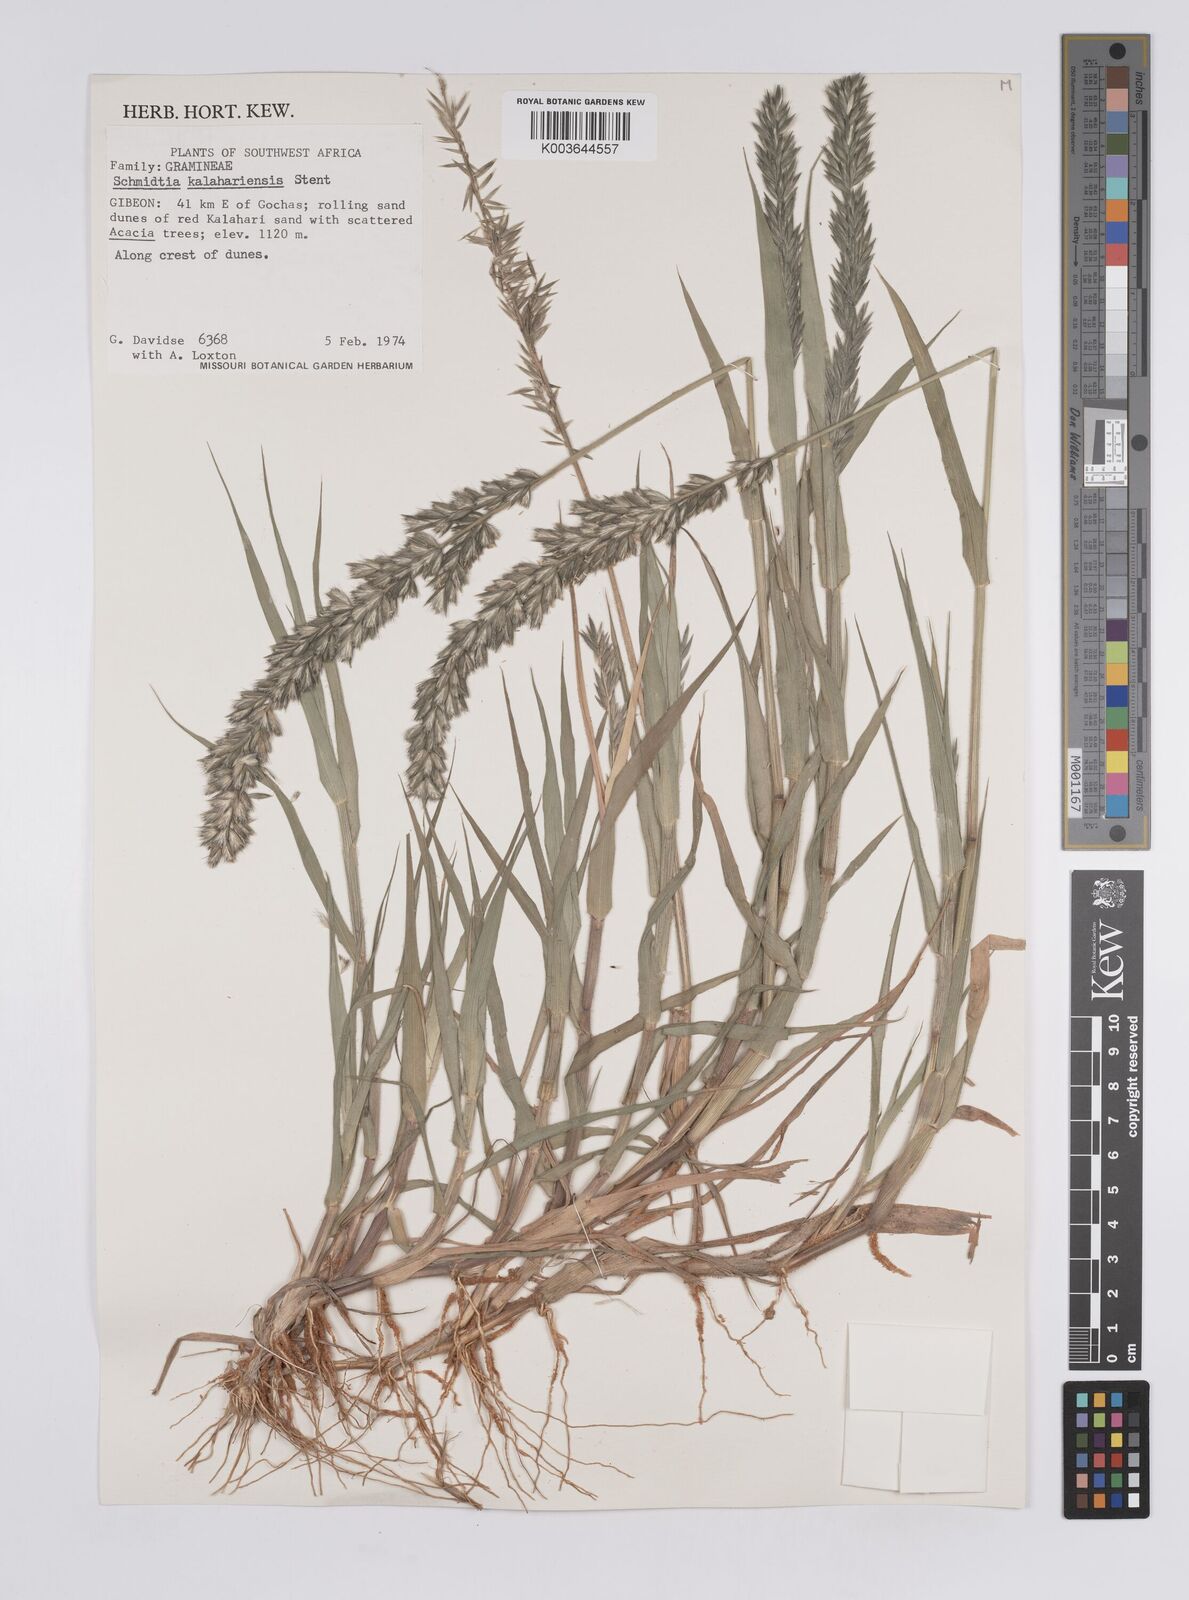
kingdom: Plantae
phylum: Tracheophyta
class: Liliopsida
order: Poales
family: Poaceae
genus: Schmidtia
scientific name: Schmidtia kalahariensis
